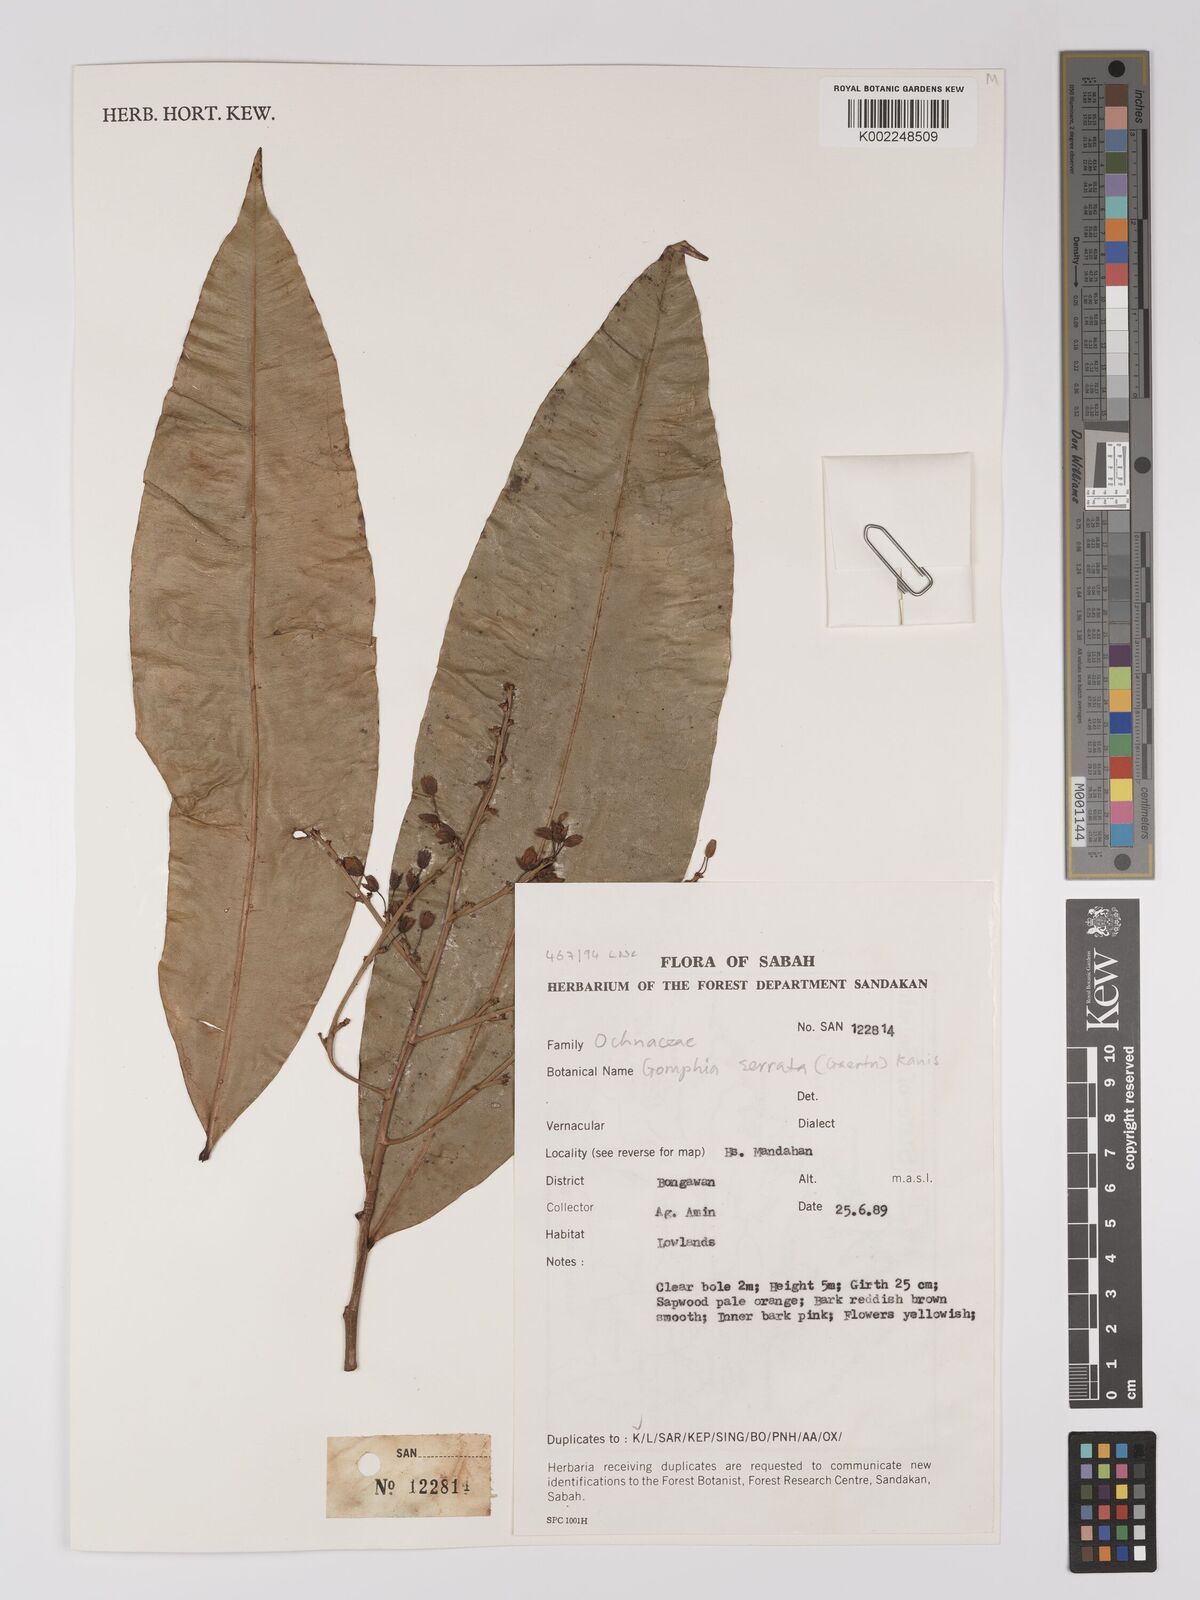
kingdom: Plantae
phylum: Tracheophyta
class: Magnoliopsida
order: Malpighiales
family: Ochnaceae
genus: Gomphia
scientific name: Gomphia serrata
